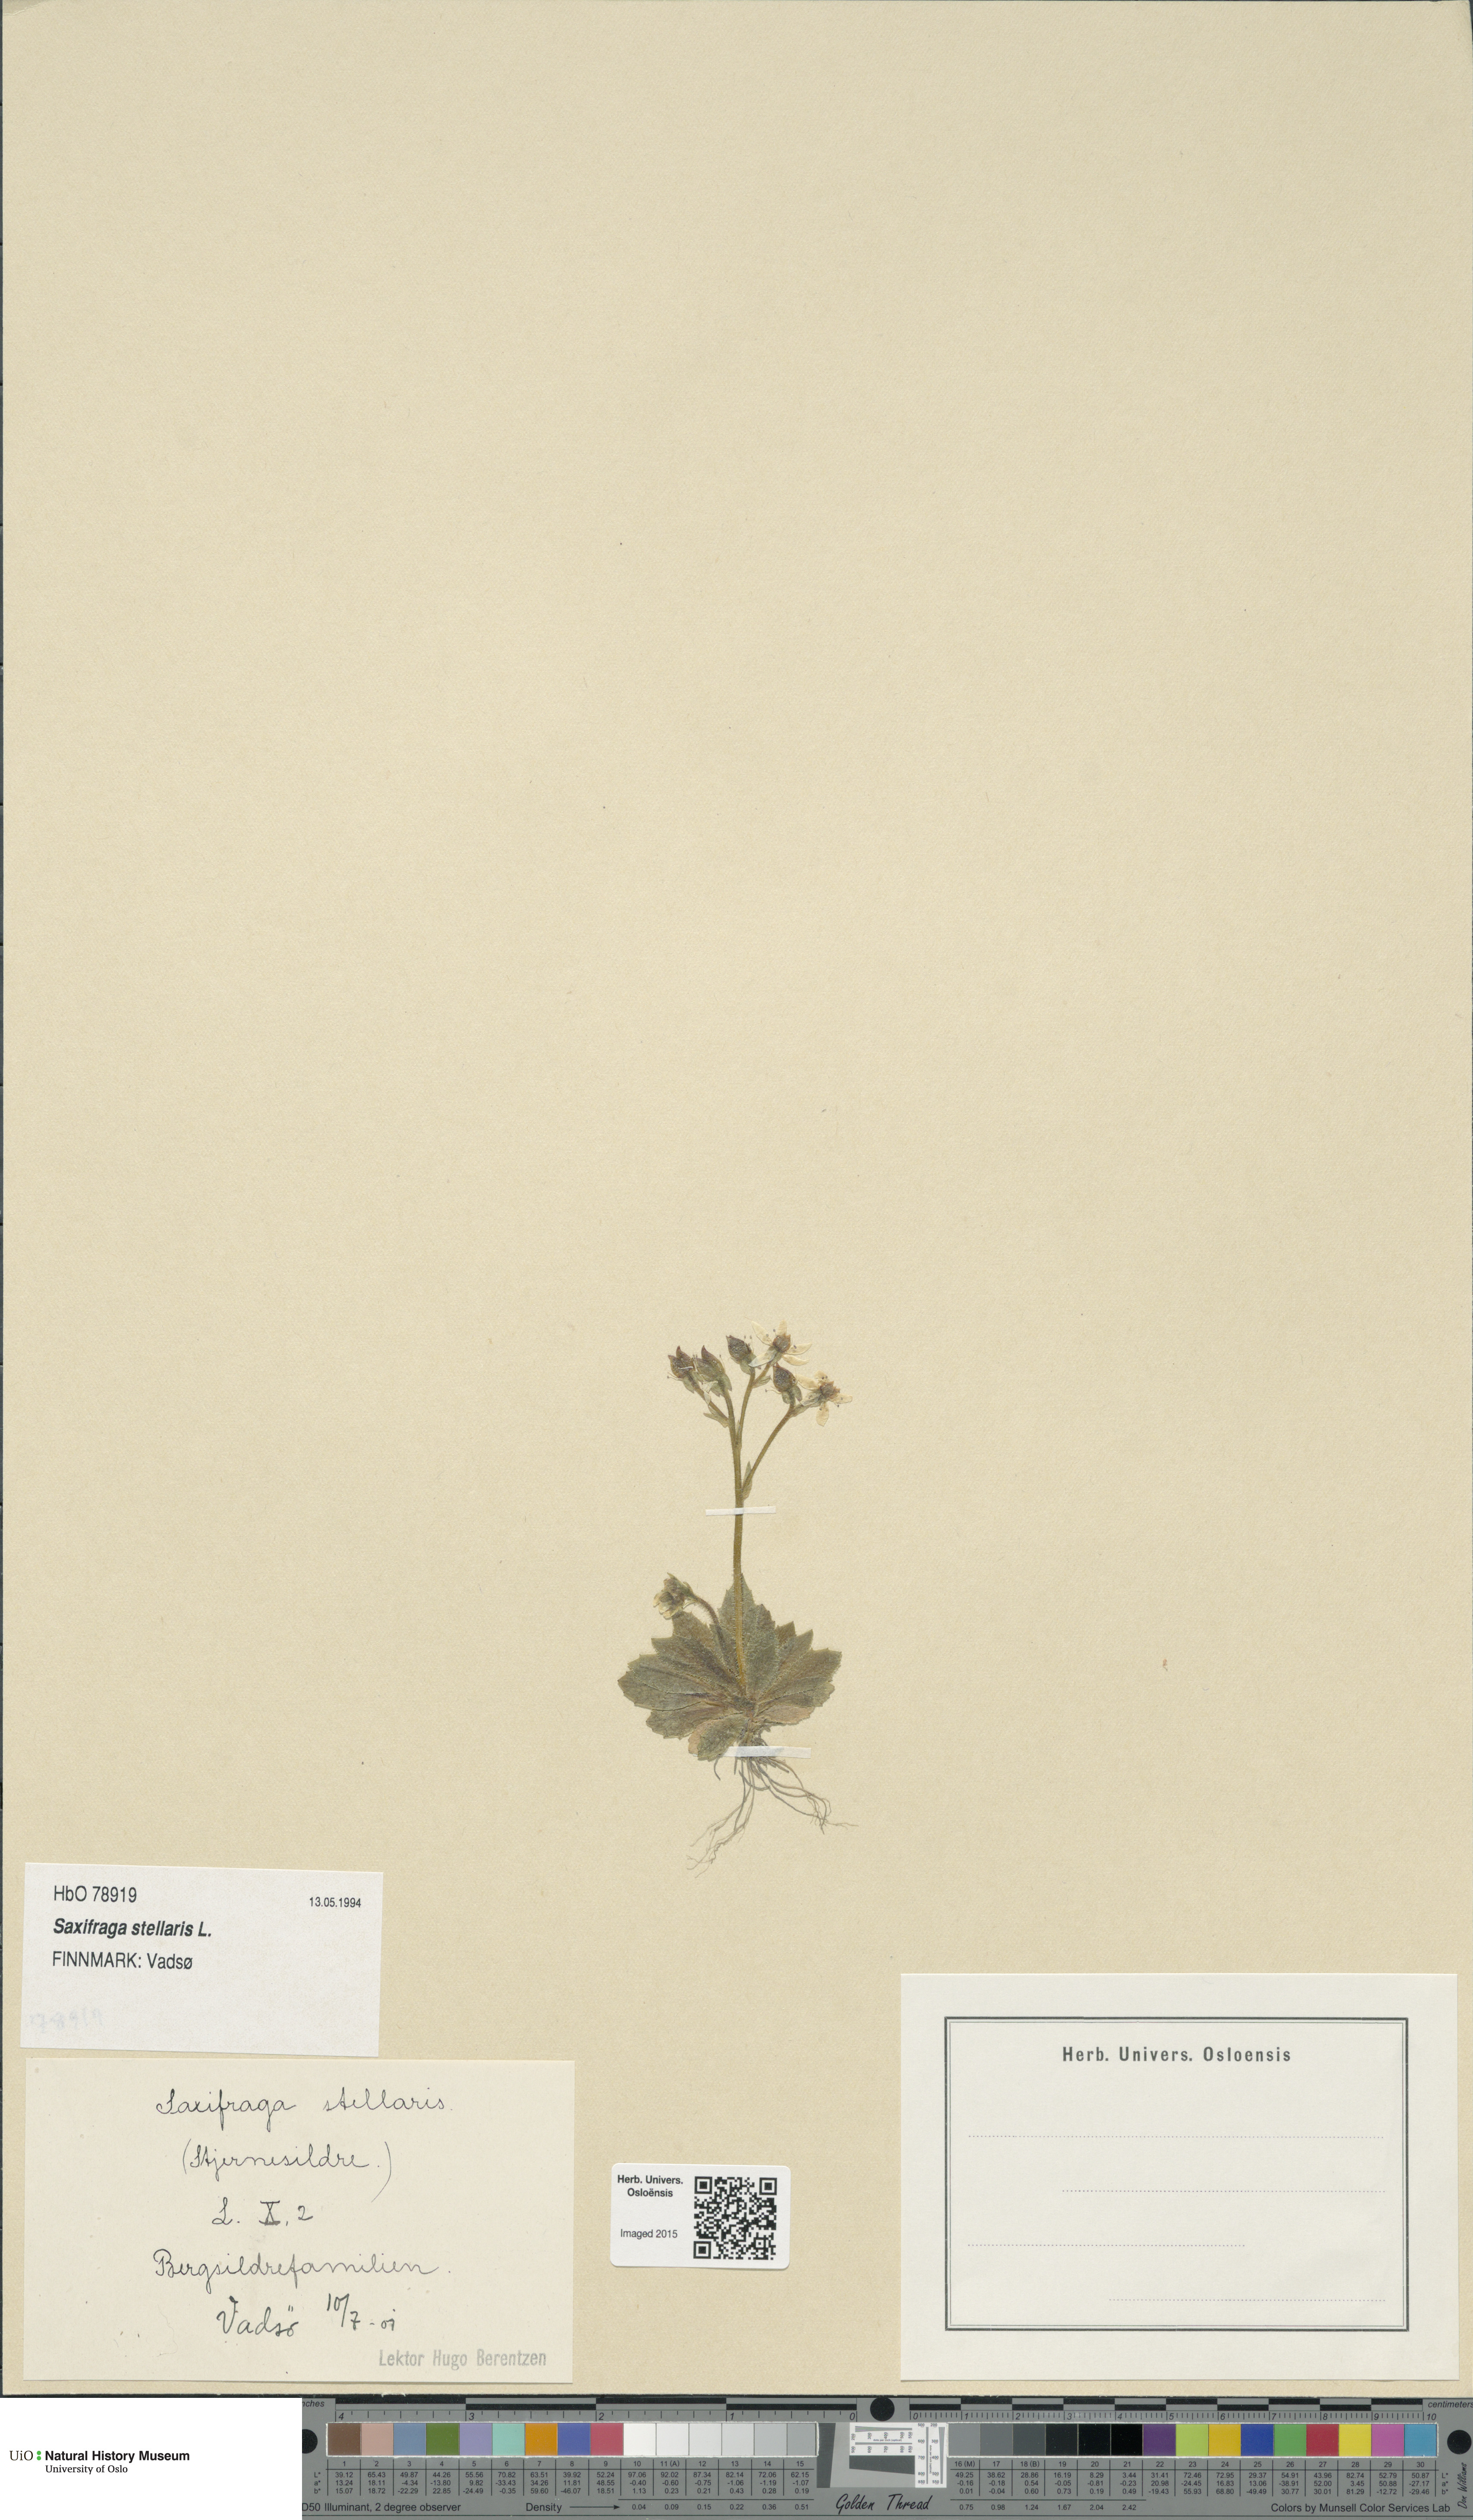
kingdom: Plantae
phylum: Tracheophyta
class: Magnoliopsida
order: Saxifragales
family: Saxifragaceae
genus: Micranthes
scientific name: Micranthes stellaris
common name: Starry saxifrage
